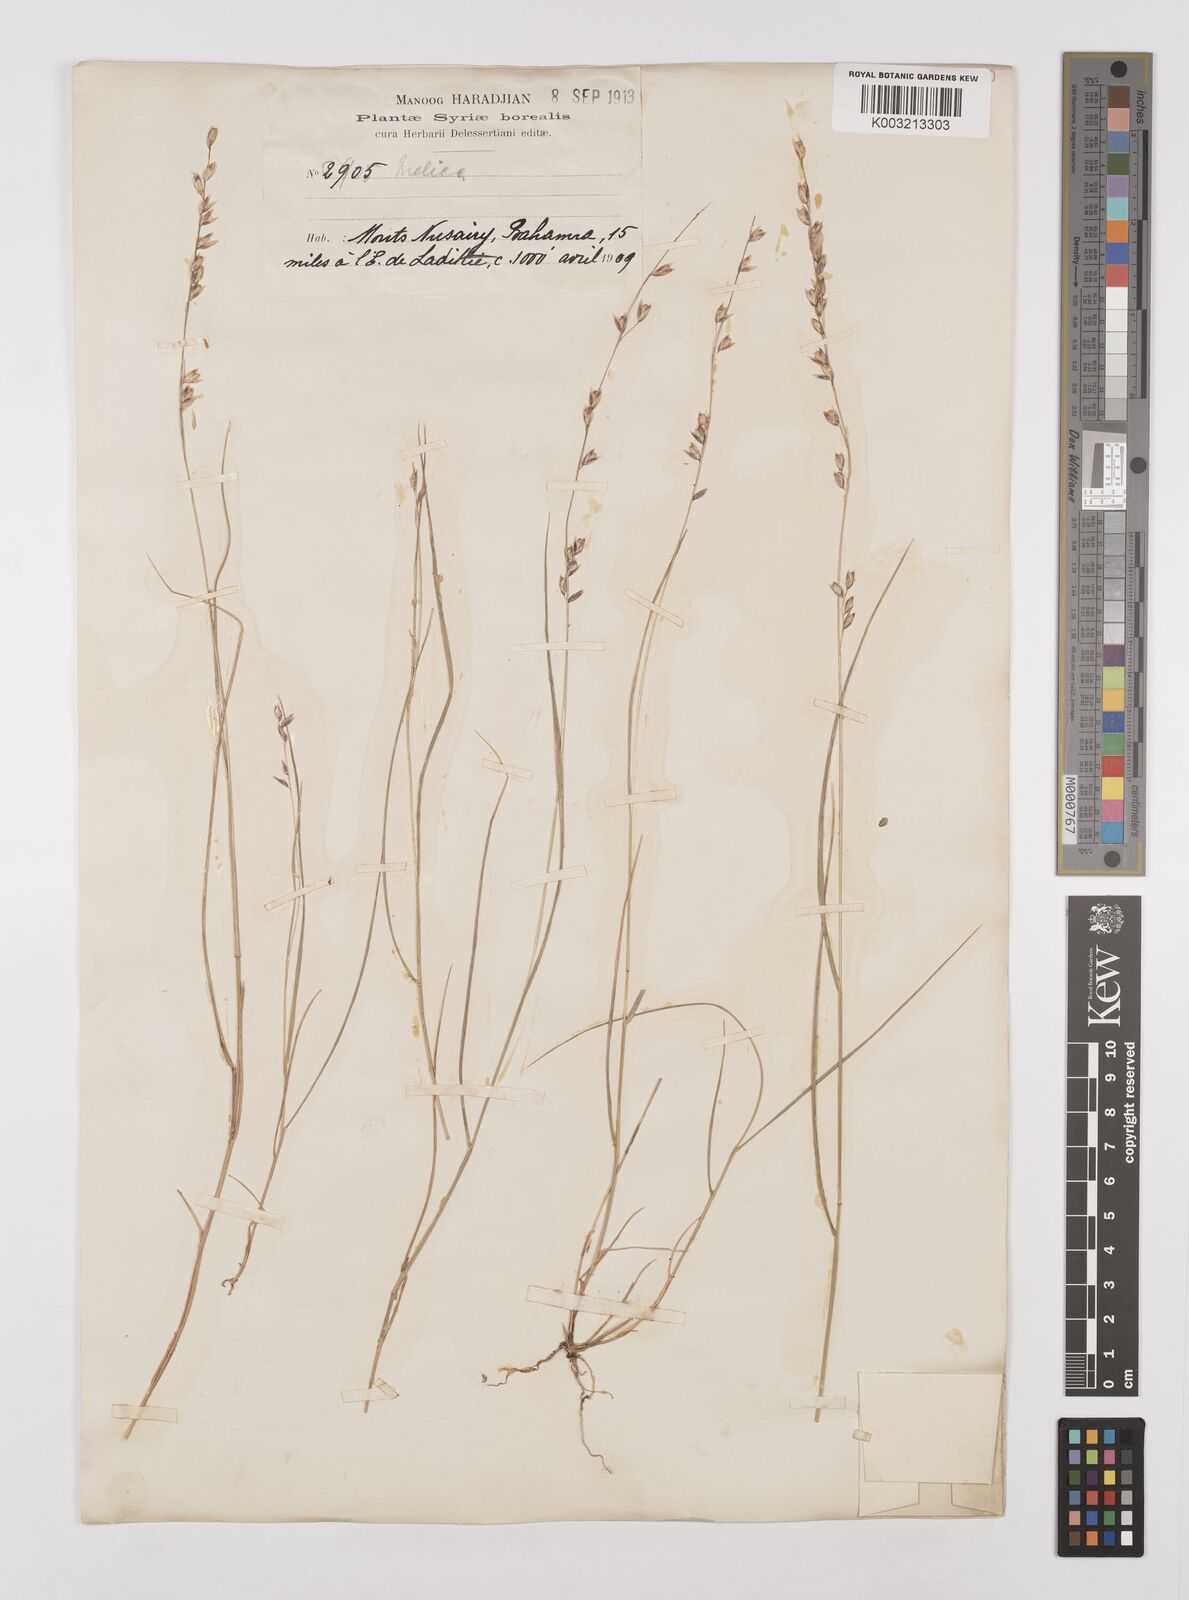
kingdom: Plantae
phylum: Tracheophyta
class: Liliopsida
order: Poales
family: Poaceae
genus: Melica
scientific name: Melica minuta
